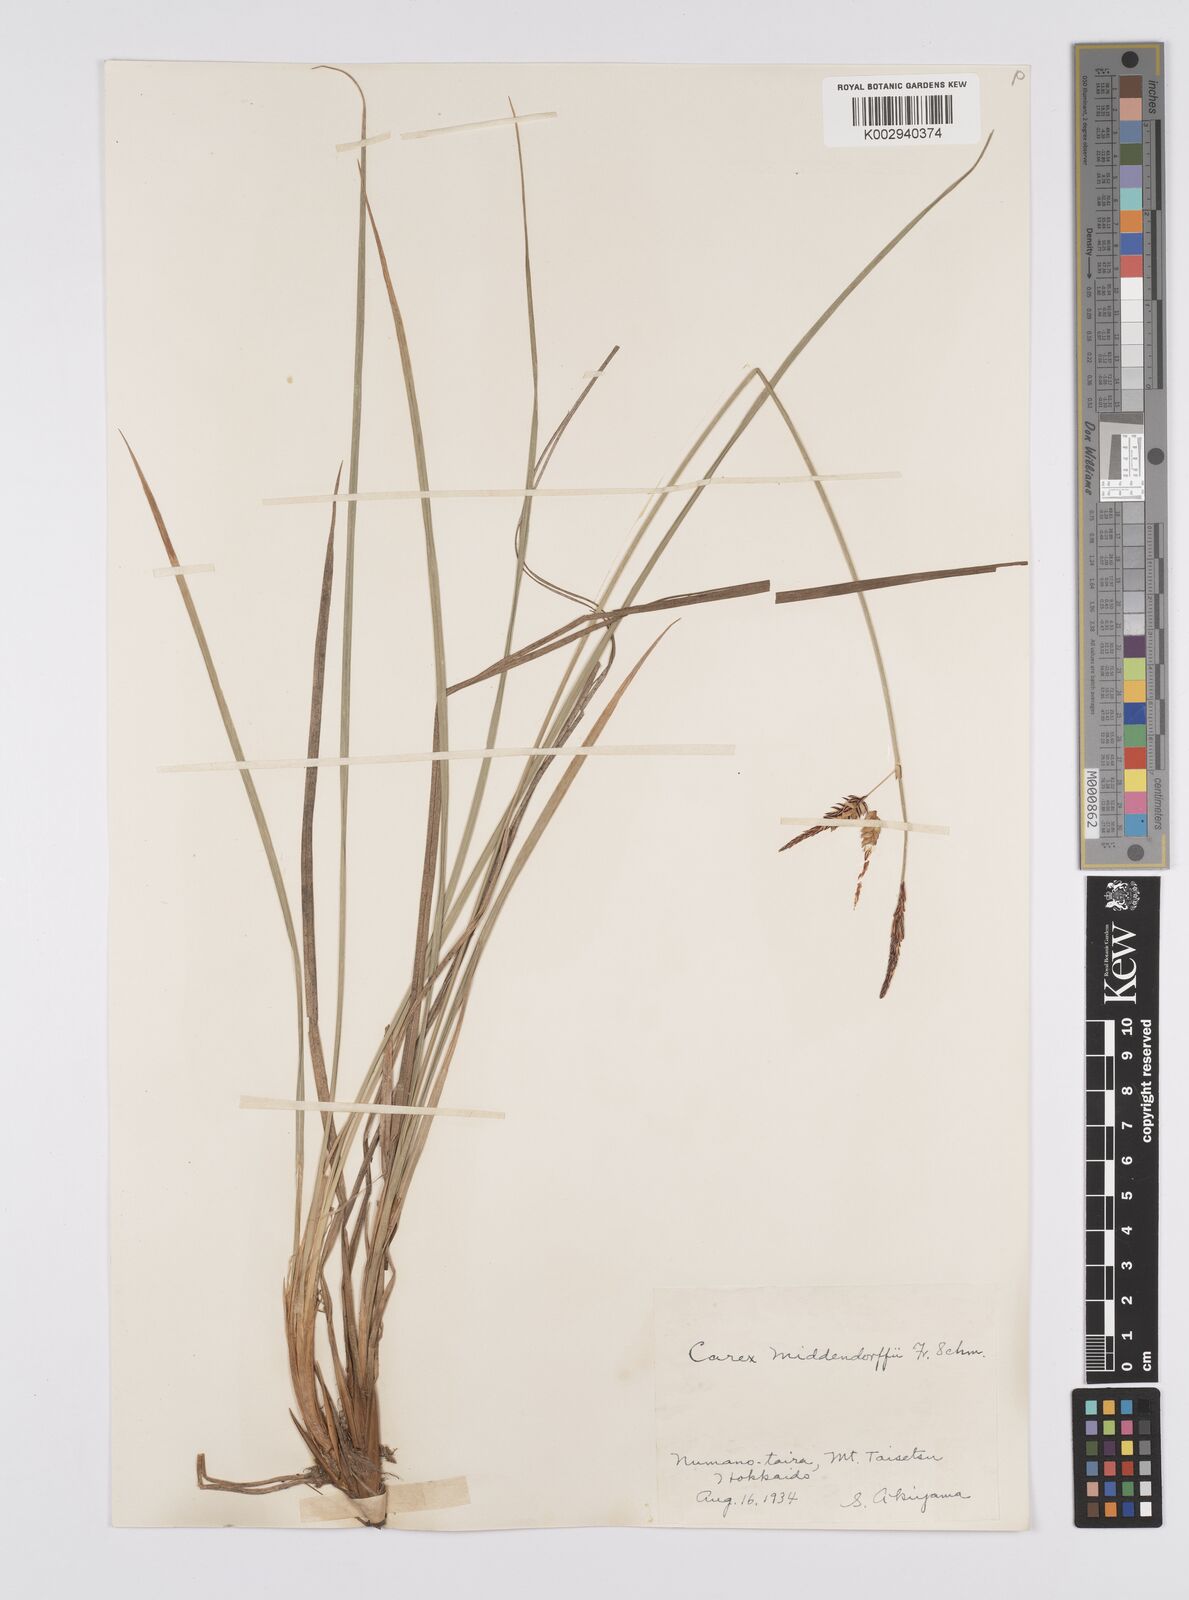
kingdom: Plantae
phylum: Tracheophyta
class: Liliopsida
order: Poales
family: Cyperaceae
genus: Carex
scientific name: Carex middendorffii
